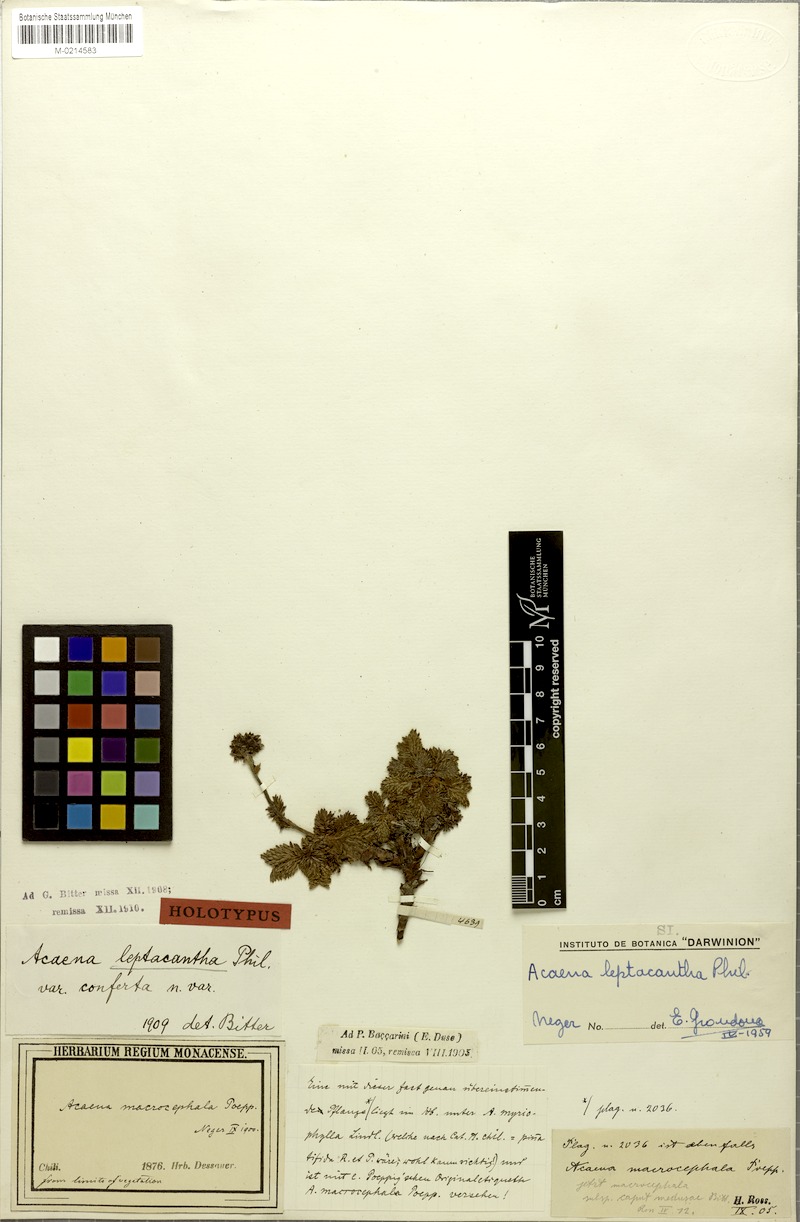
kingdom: Plantae
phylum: Tracheophyta
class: Magnoliopsida
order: Rosales
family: Rosaceae
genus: Acaena
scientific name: Acaena leptacantha
